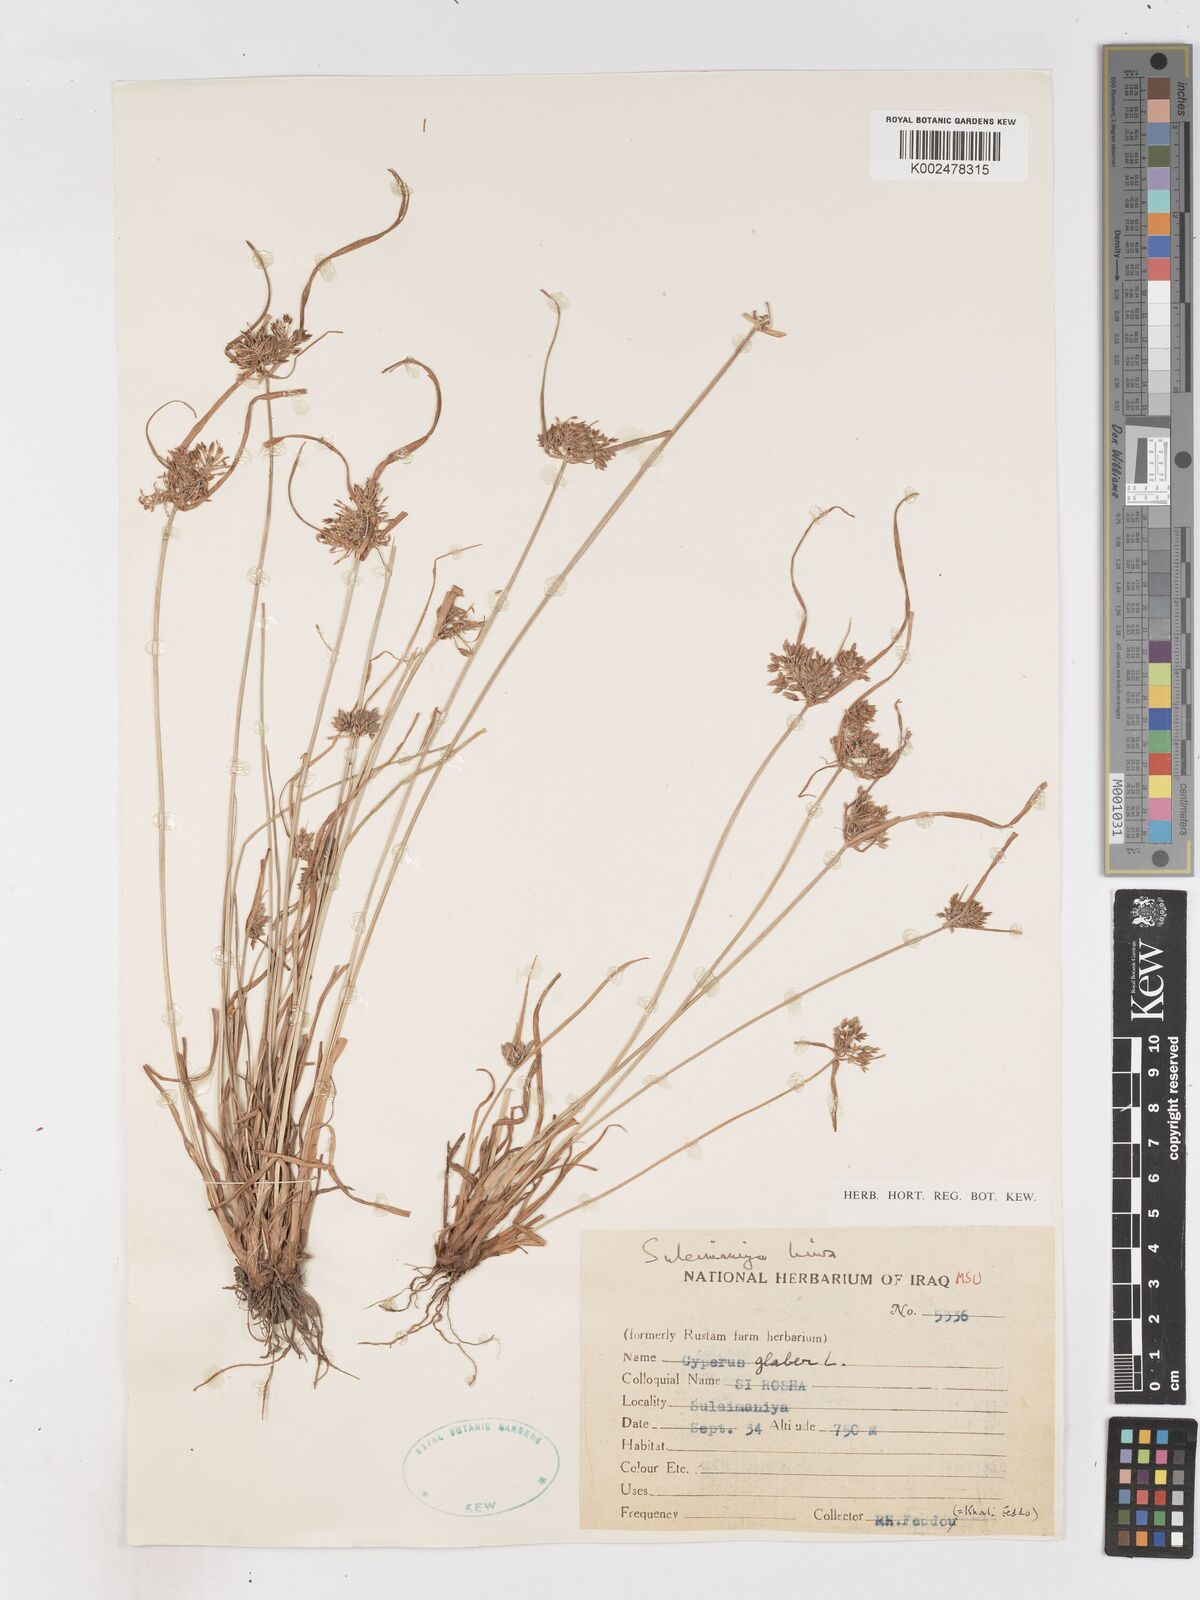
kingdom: Plantae
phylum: Tracheophyta
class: Liliopsida
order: Poales
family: Cyperaceae
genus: Cyperus
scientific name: Cyperus glaber
